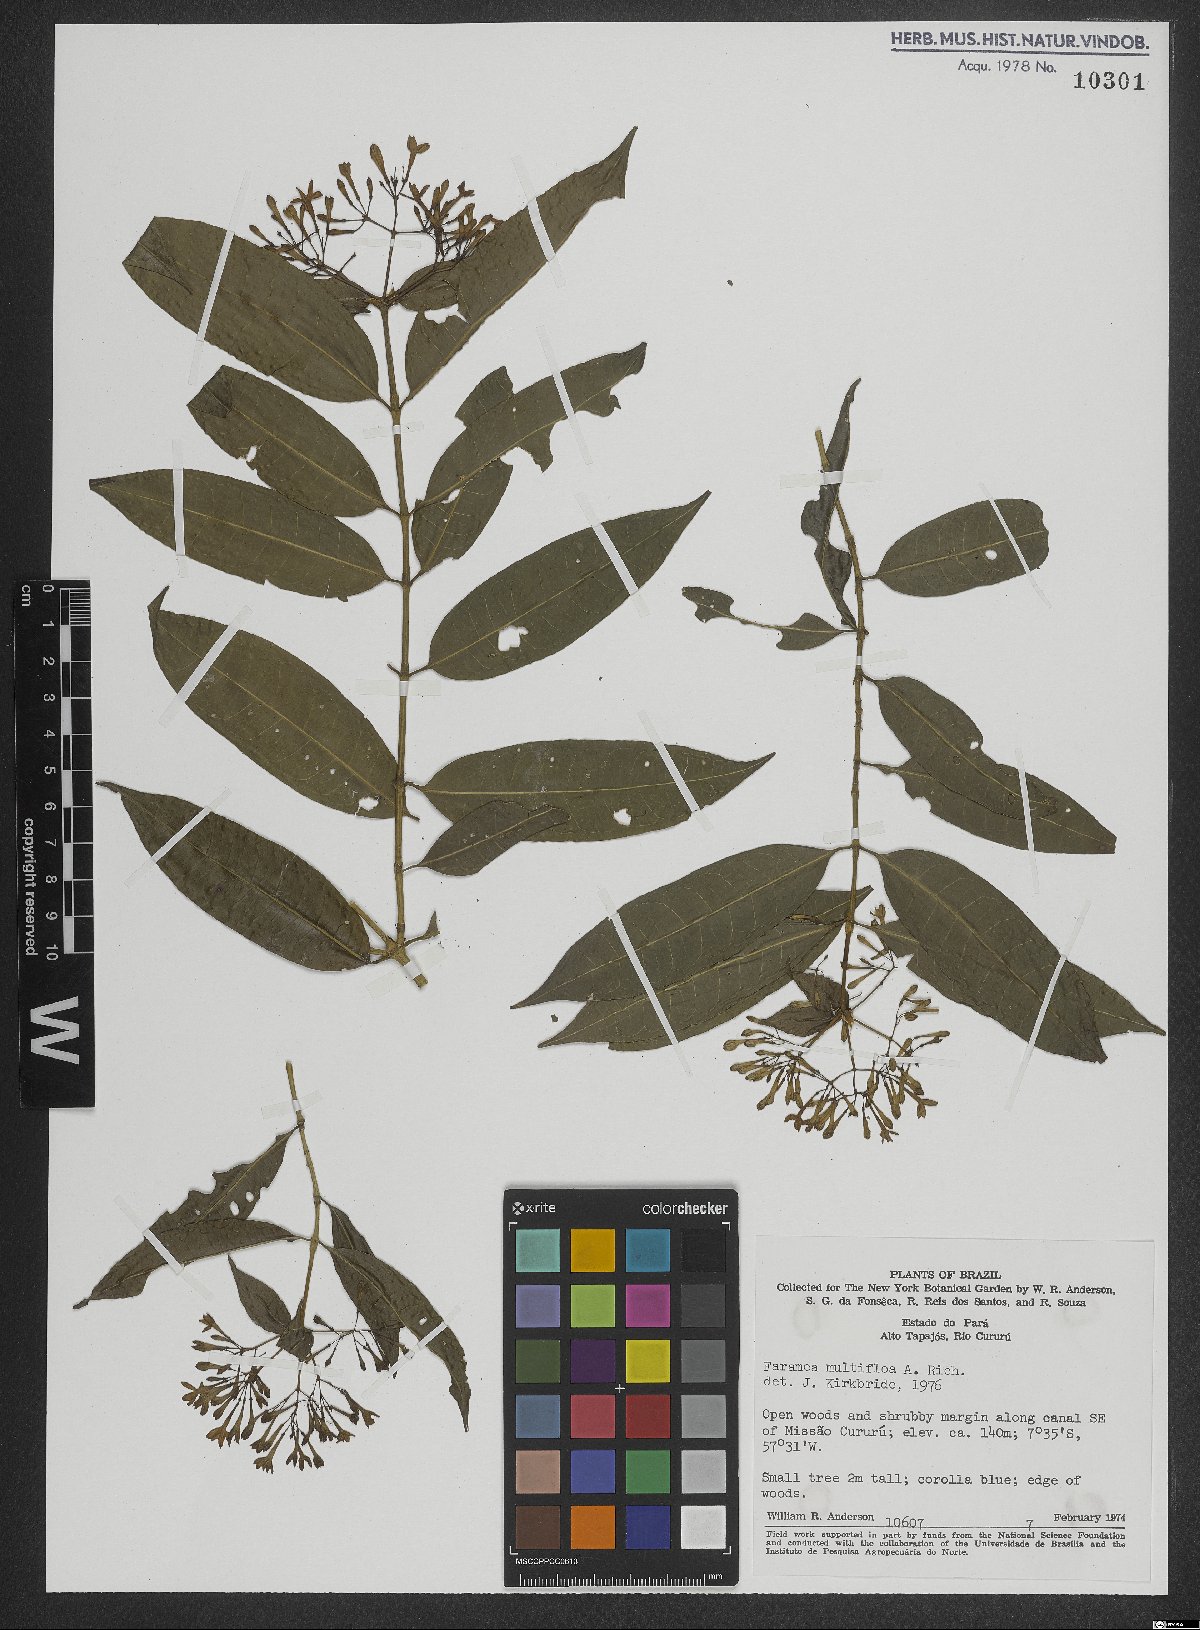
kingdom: Plantae
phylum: Tracheophyta
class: Magnoliopsida
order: Gentianales
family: Rubiaceae
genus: Faramea
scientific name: Faramea multiflora
